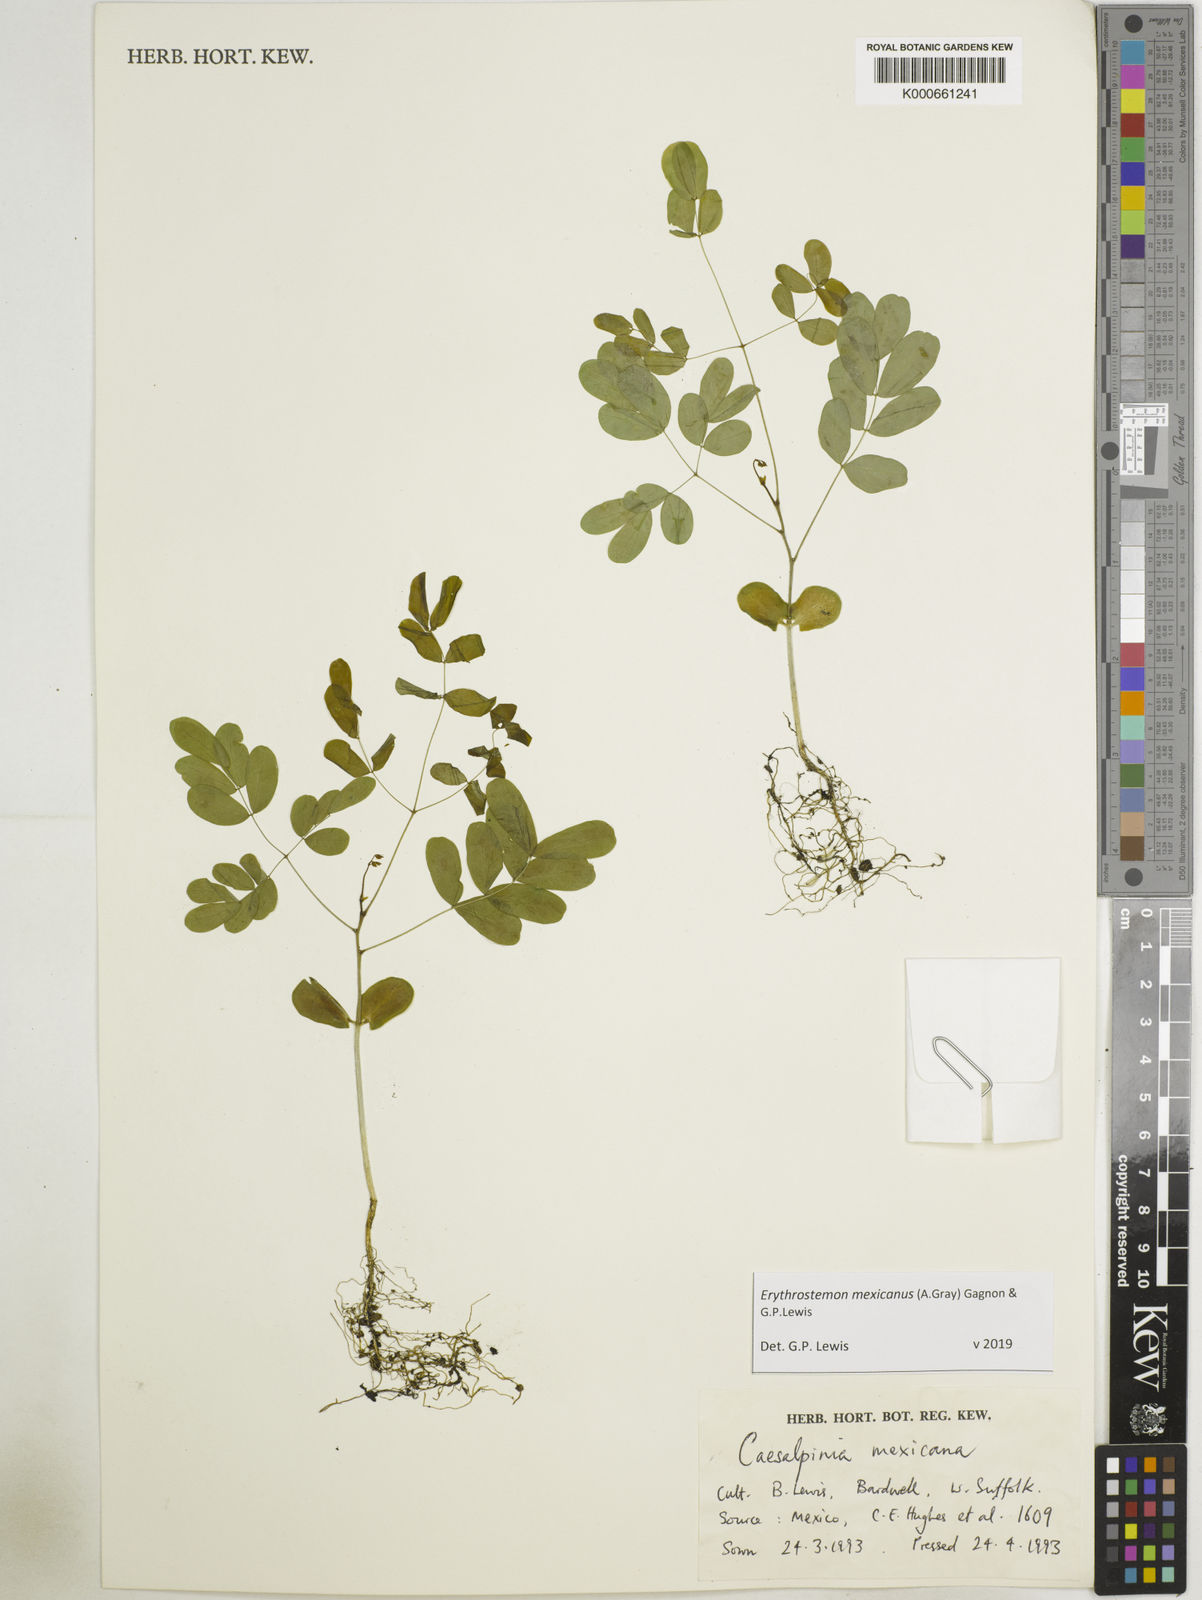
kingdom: Plantae
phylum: Tracheophyta
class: Magnoliopsida
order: Fabales
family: Fabaceae
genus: Erythrostemon
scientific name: Erythrostemon mexicanus
